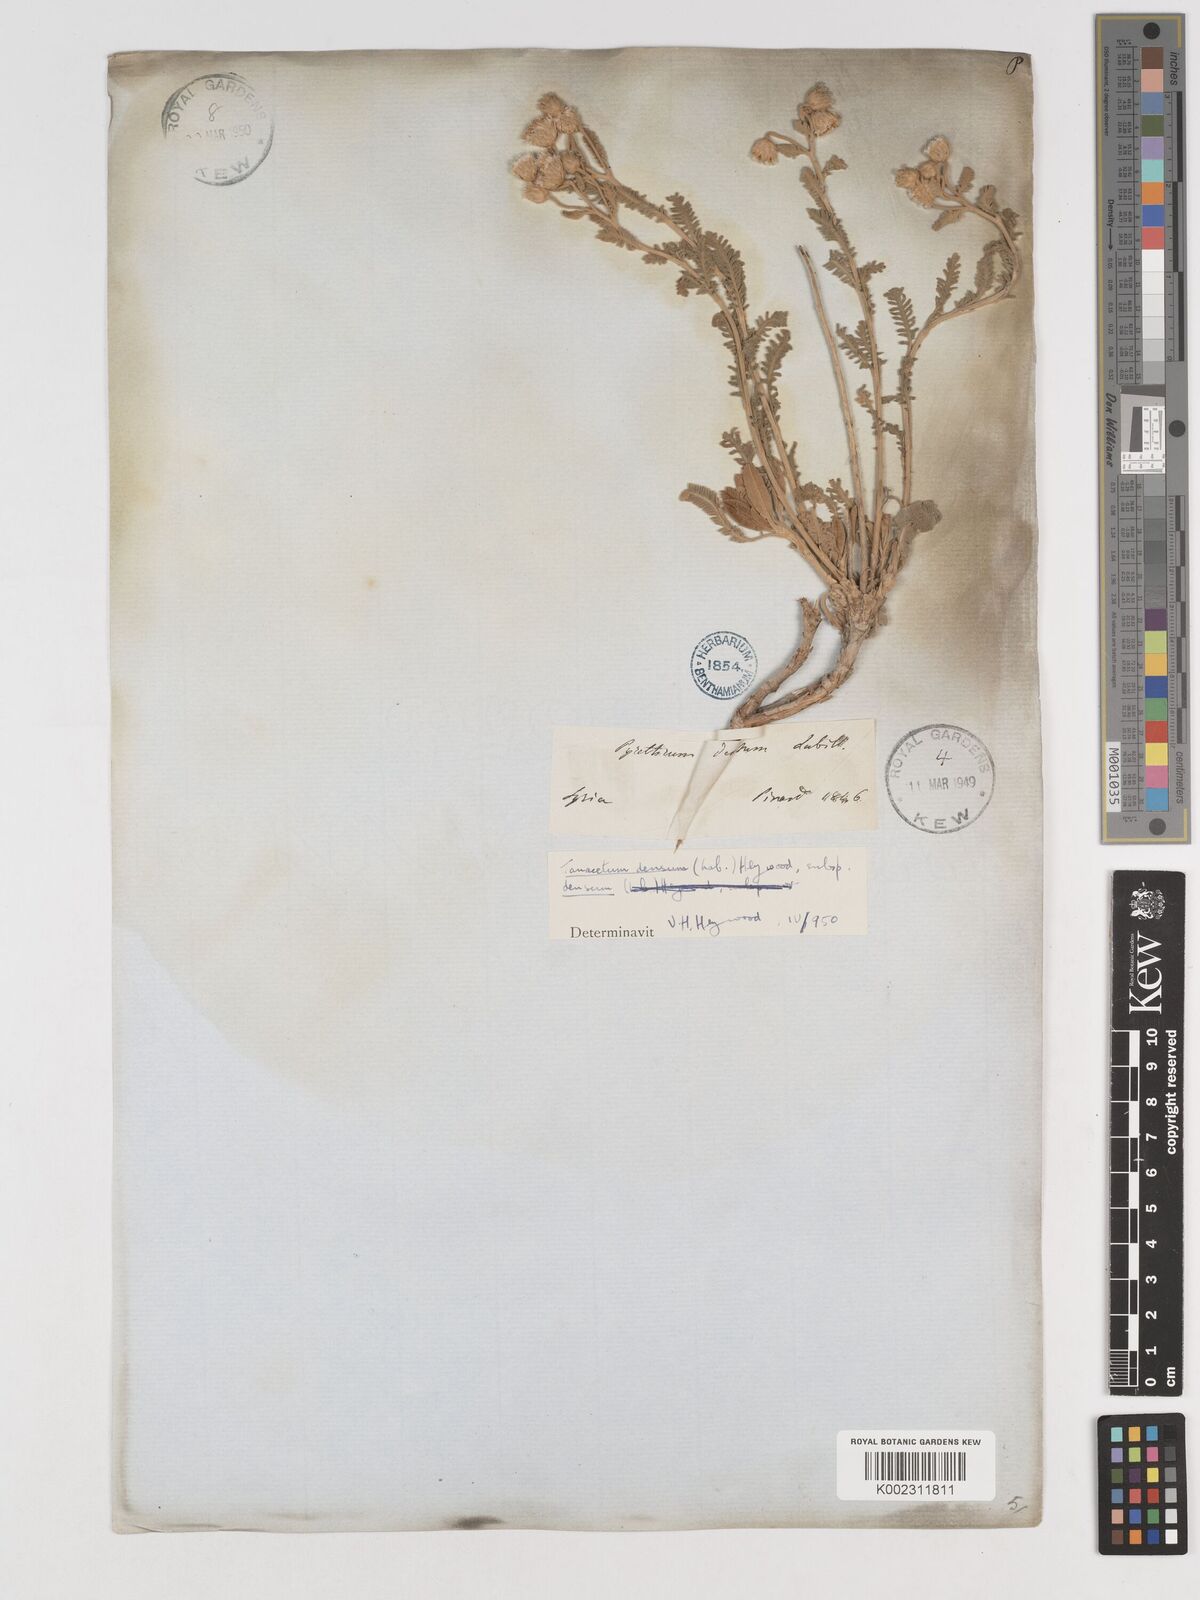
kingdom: Plantae
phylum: Tracheophyta
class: Magnoliopsida
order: Asterales
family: Asteraceae
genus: Tanacetum
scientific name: Tanacetum densum
